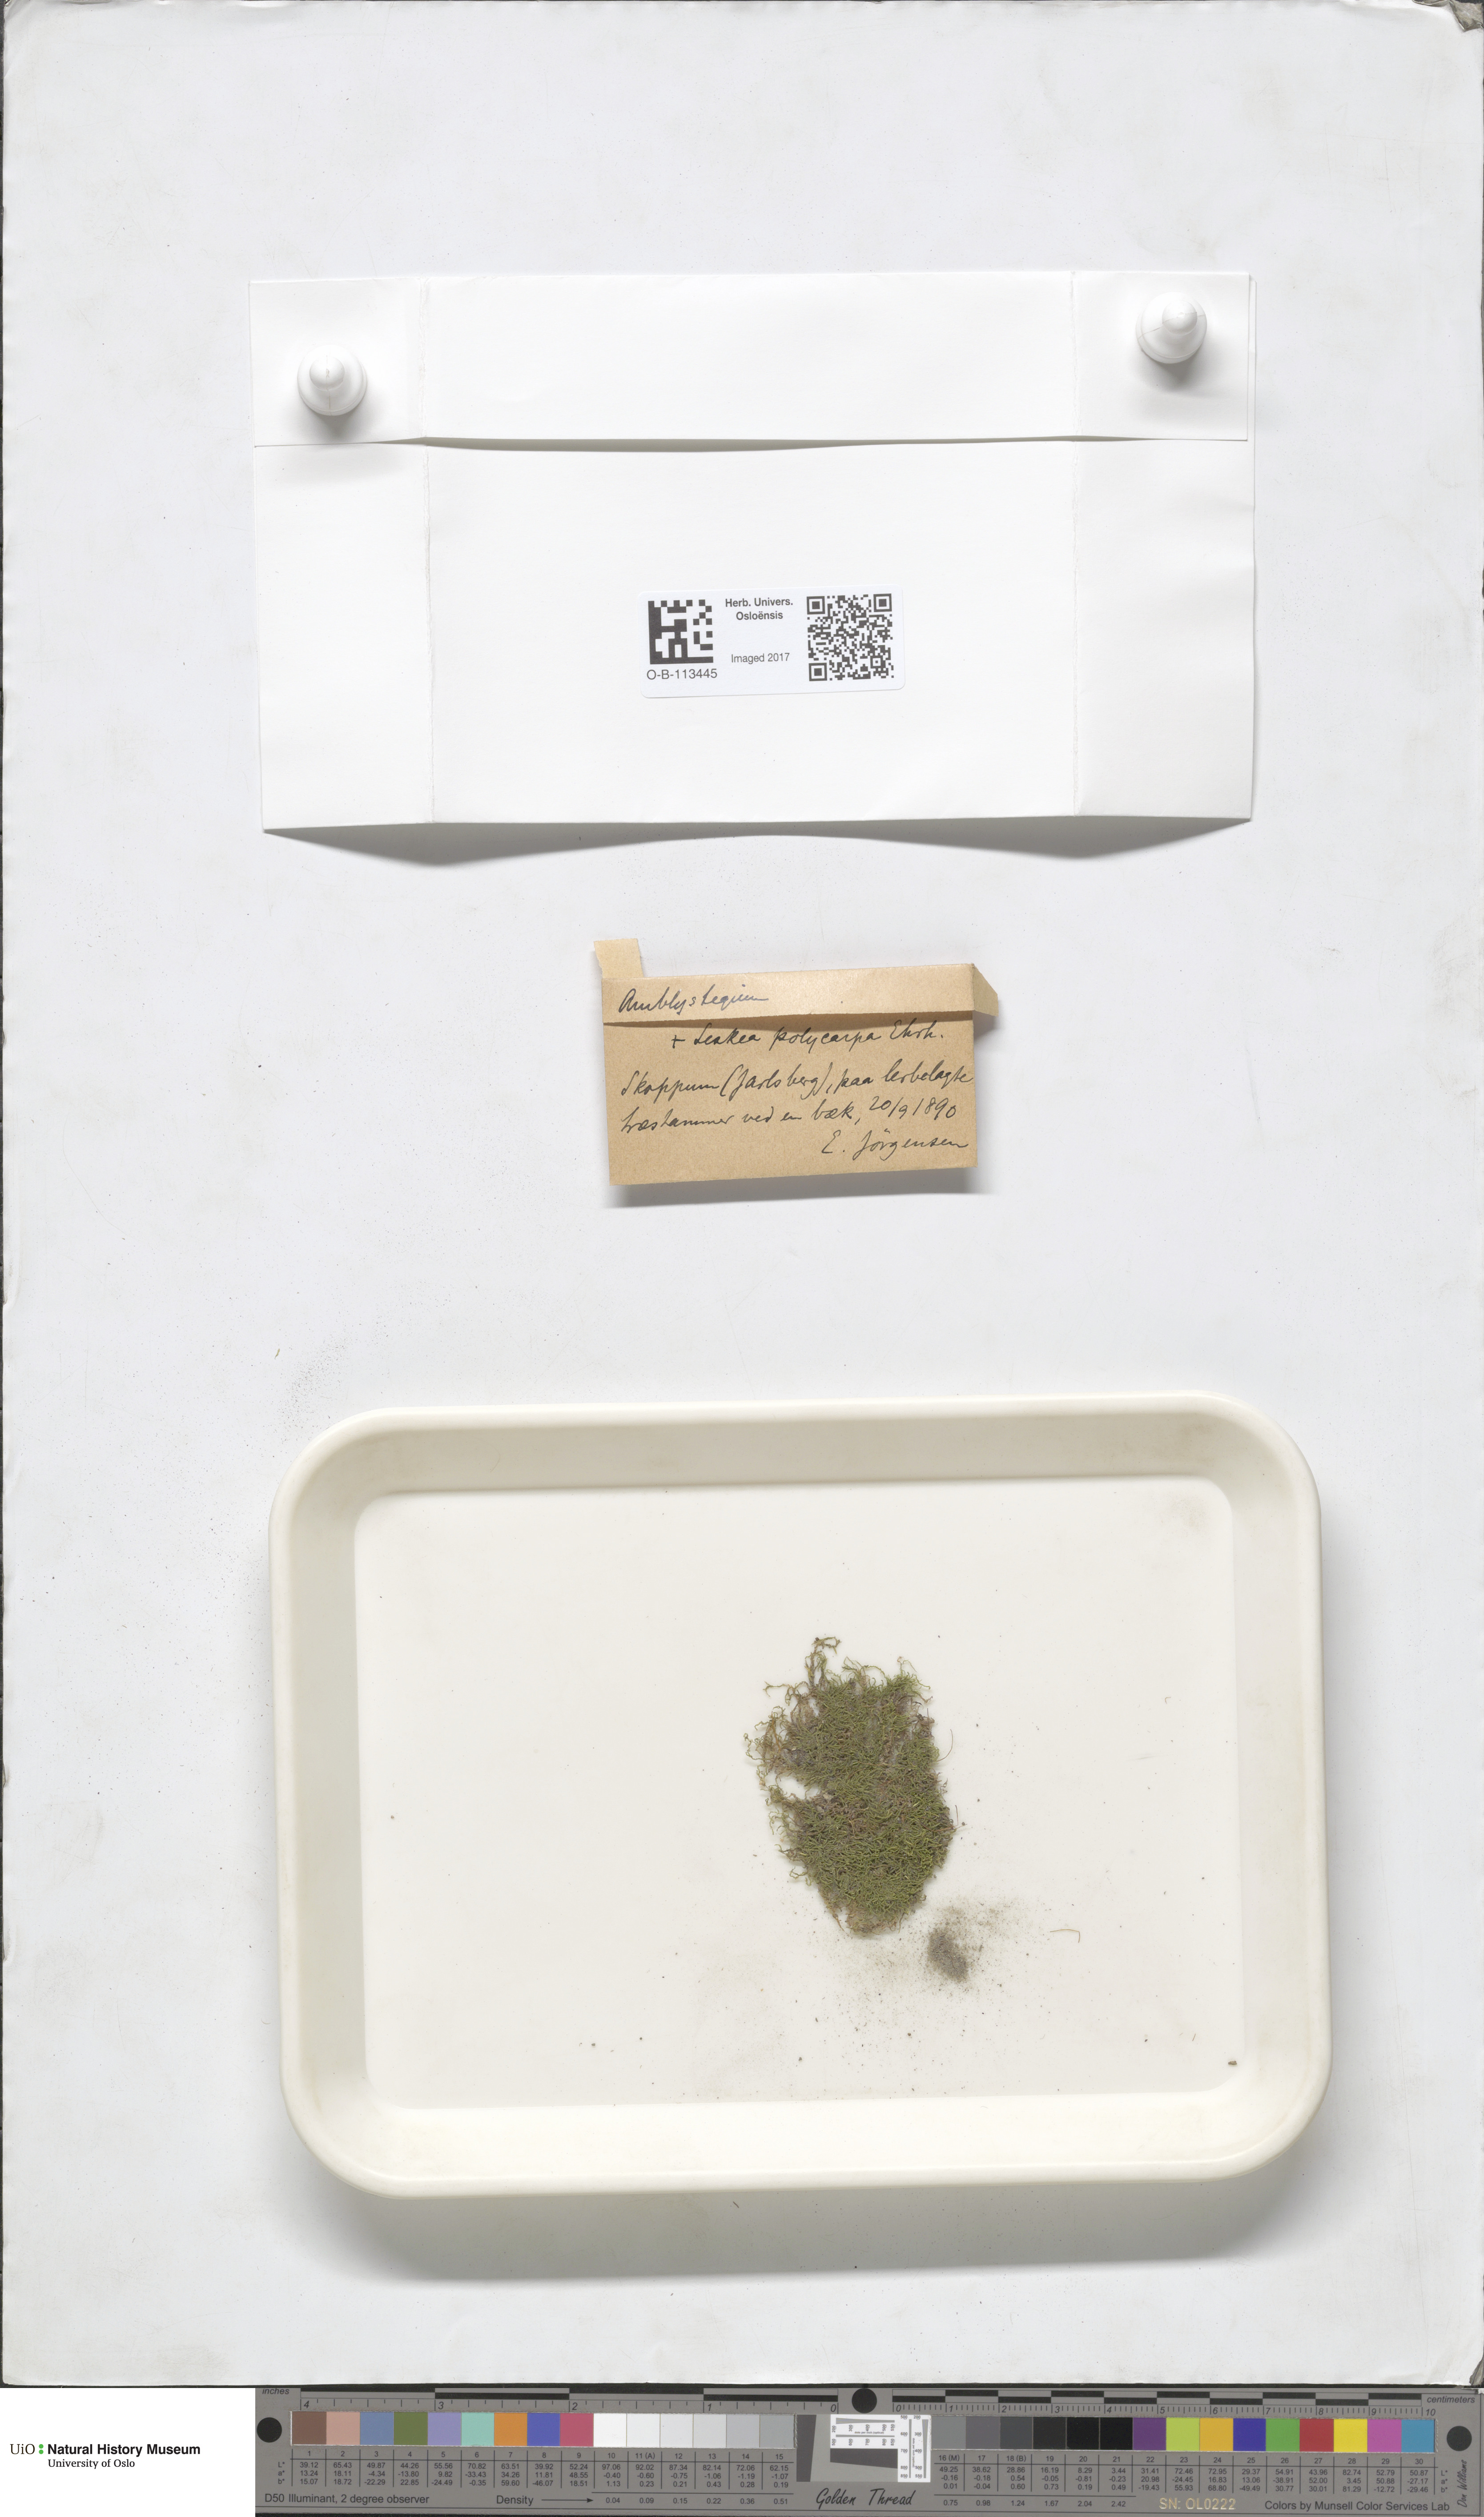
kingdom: Plantae
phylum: Bryophyta
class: Bryopsida
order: Hypnales
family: Amblystegiaceae
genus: Amblystegium
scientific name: Amblystegium
